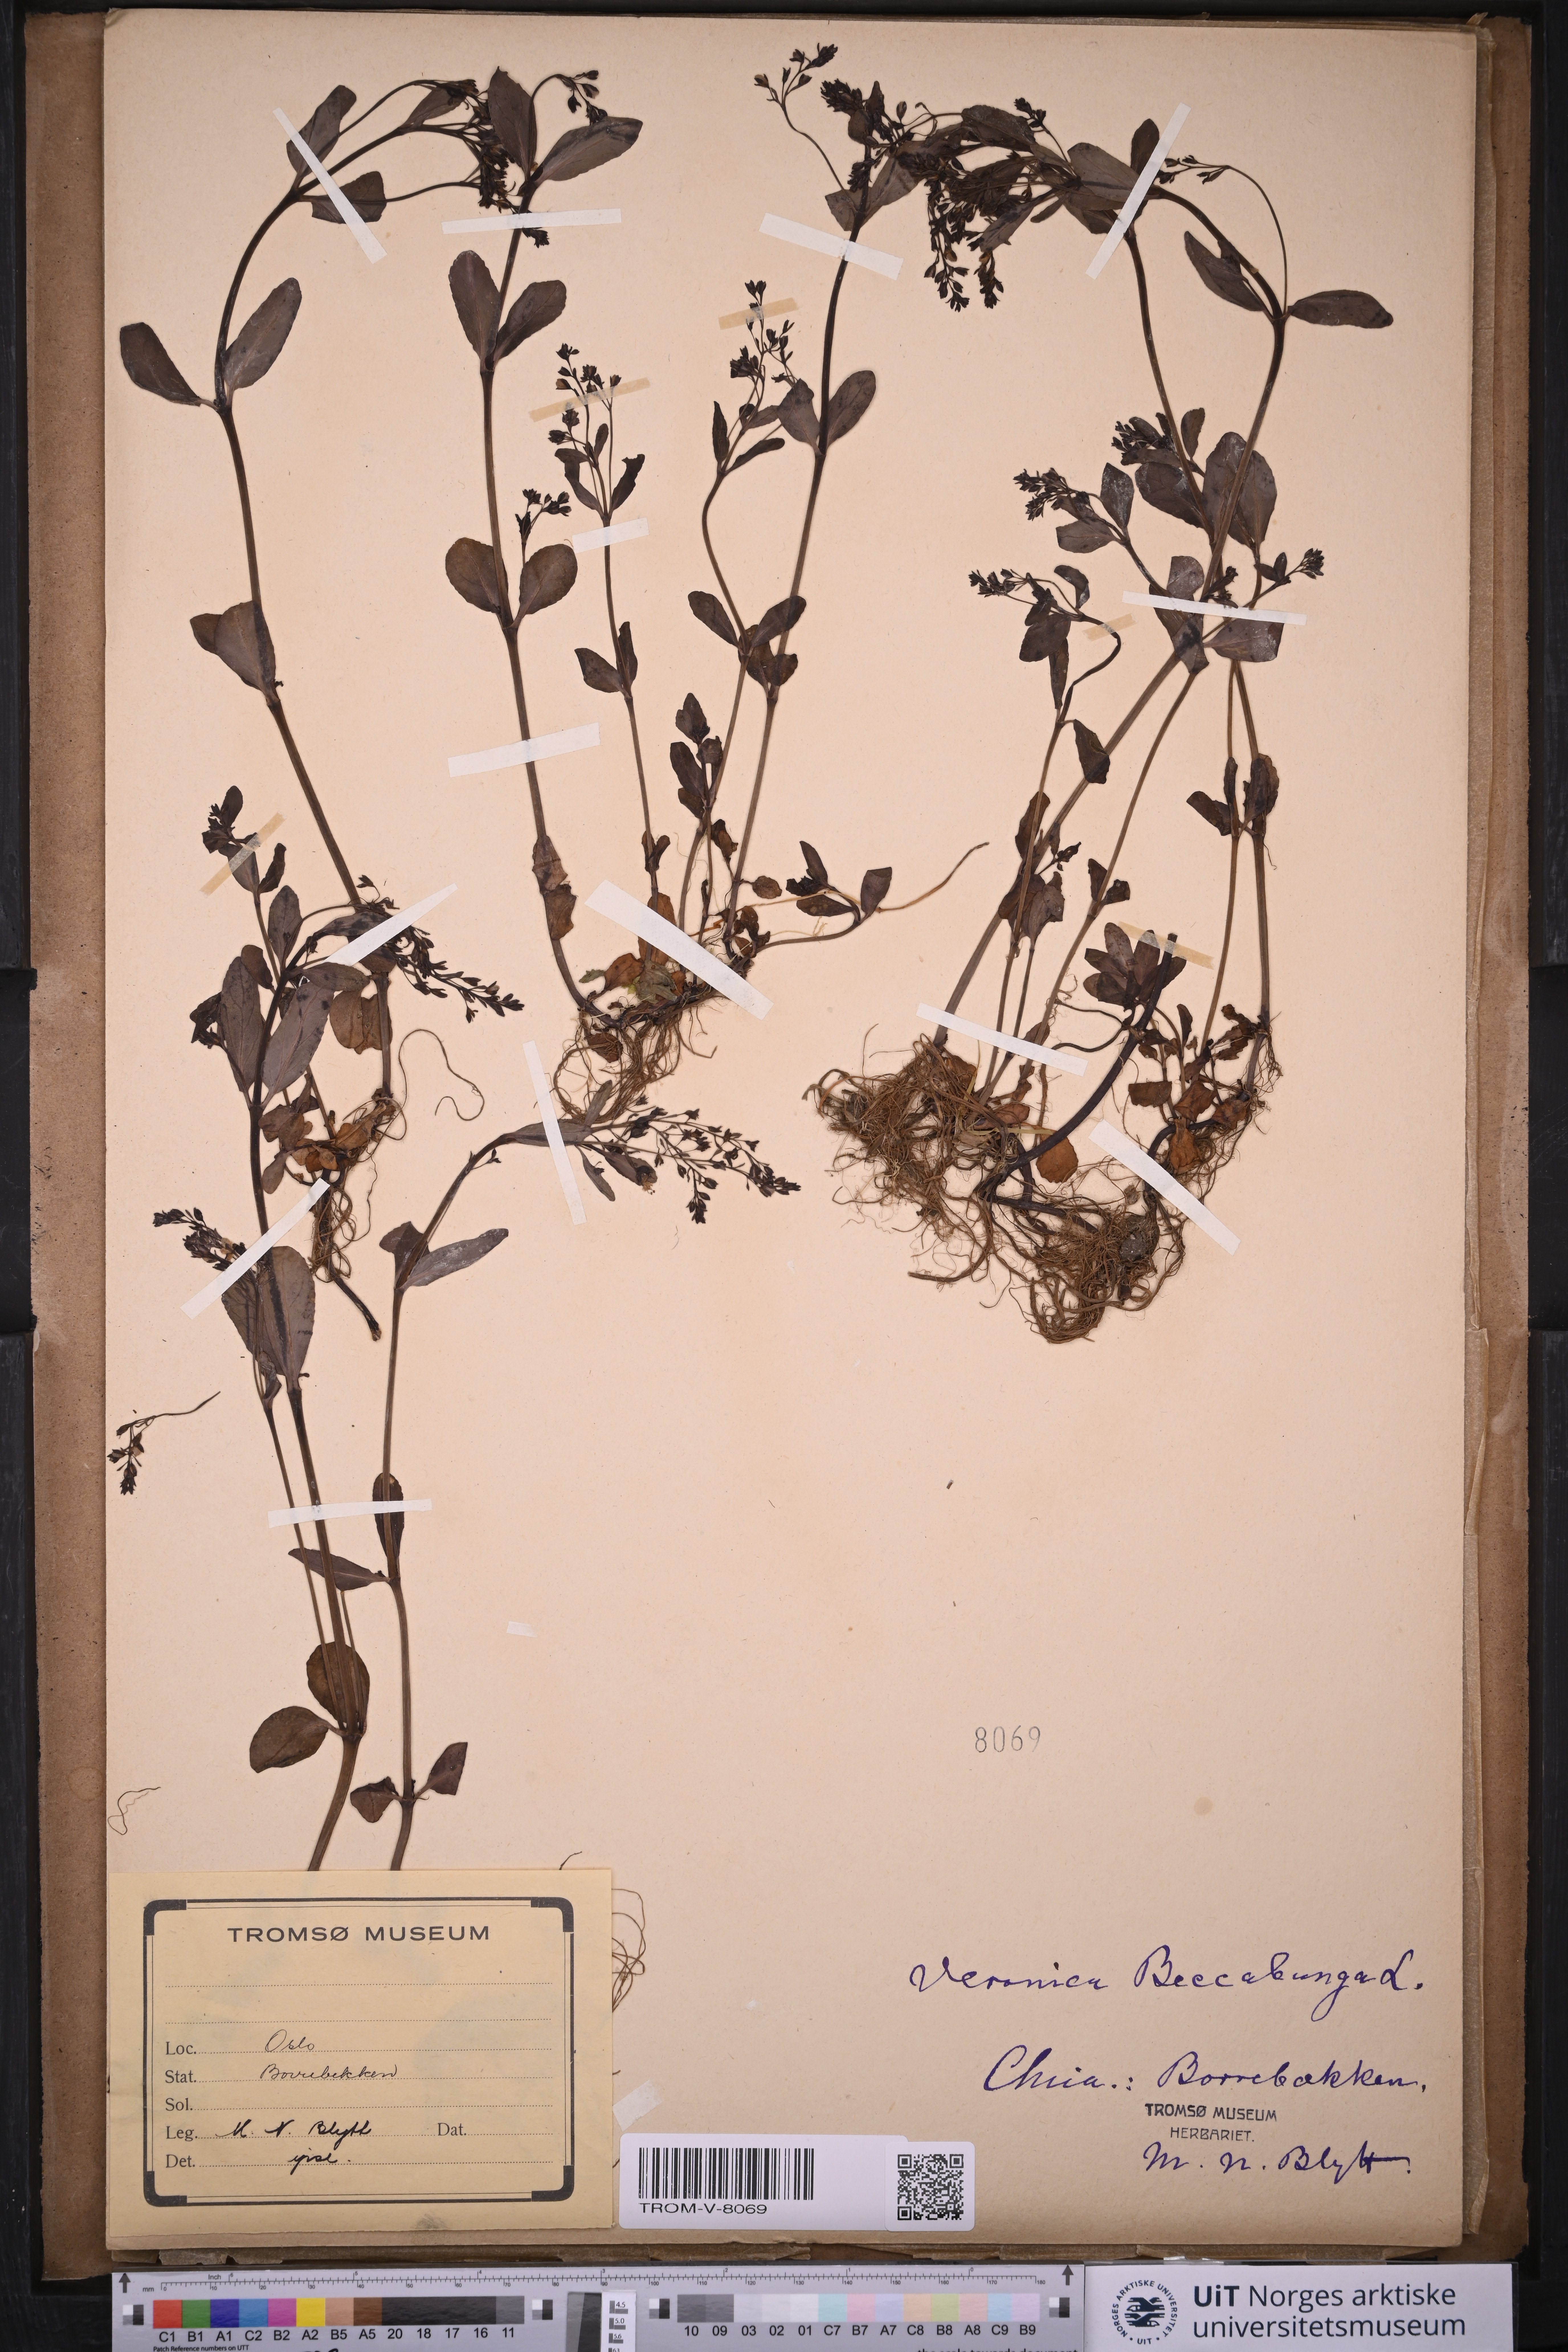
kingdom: Plantae
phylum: Tracheophyta
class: Magnoliopsida
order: Lamiales
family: Plantaginaceae
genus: Veronica
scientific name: Veronica beccabunga
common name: Brooklime
